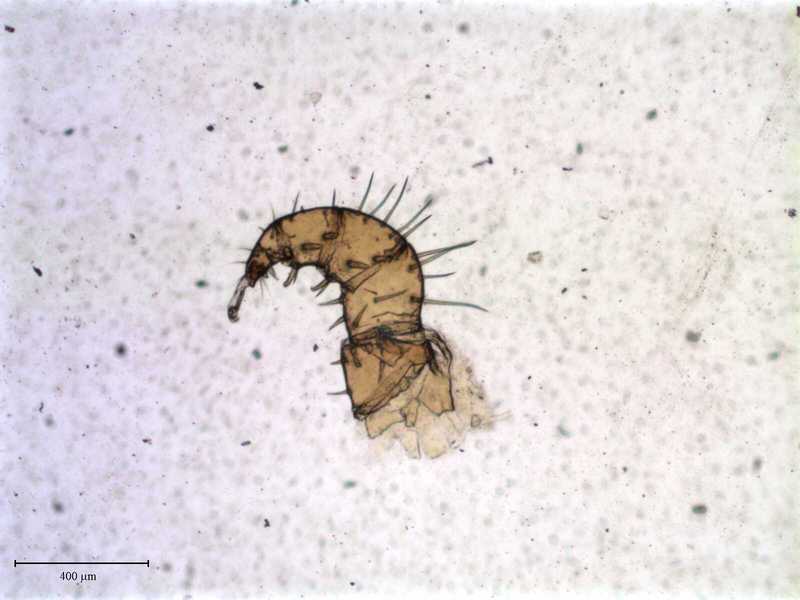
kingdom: Animalia
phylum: Arthropoda
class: Arachnida
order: Mesostigmata
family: Laelapidae
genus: Dinogamasus
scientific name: Dinogamasus
